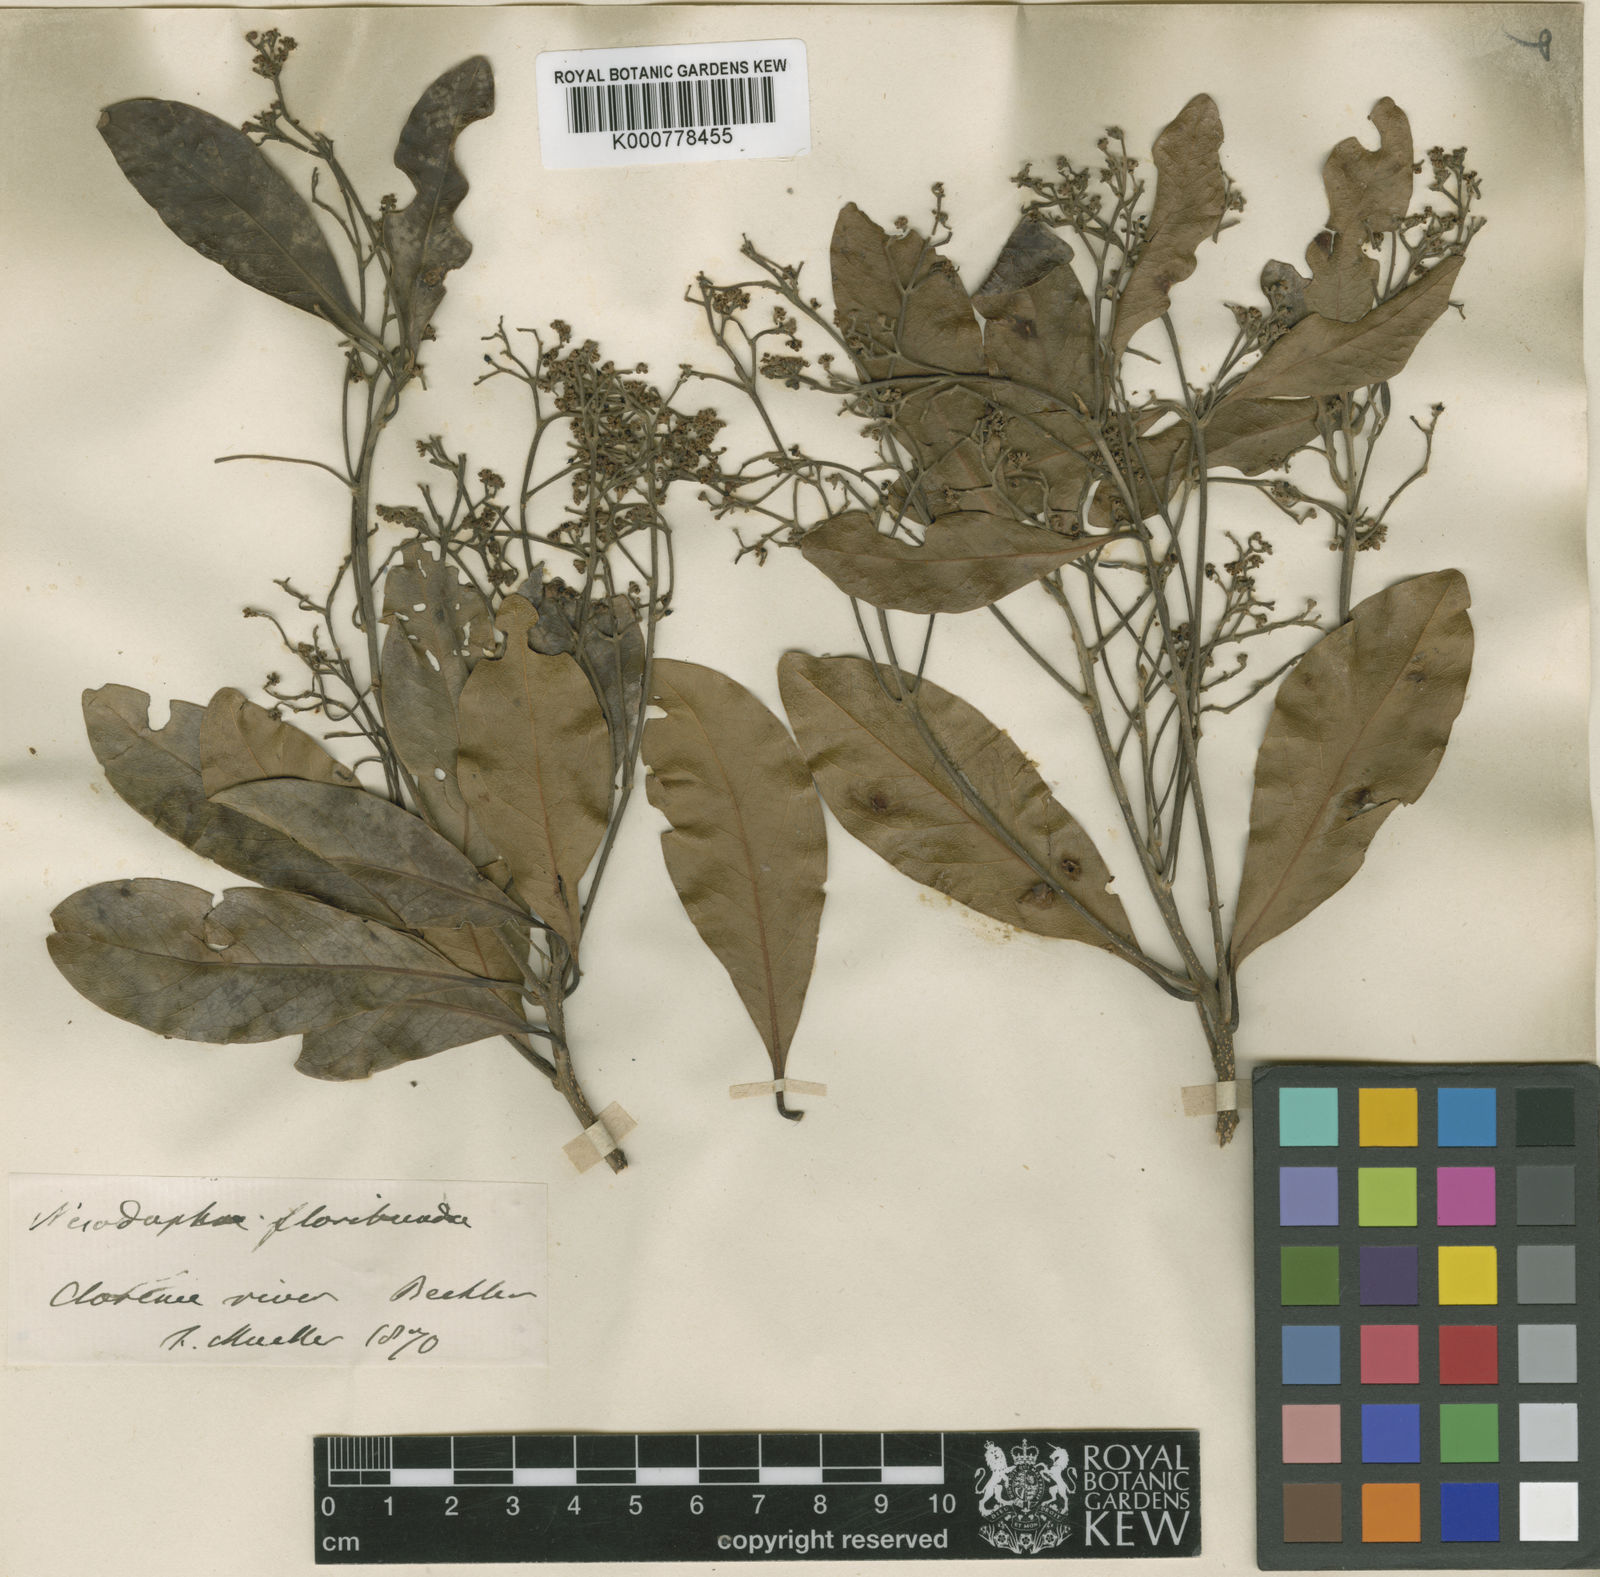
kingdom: Plantae
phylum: Tracheophyta
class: Magnoliopsida
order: Laurales
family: Lauraceae
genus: Beilschmiedia
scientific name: Beilschmiedia obtusifolia
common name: Queensland-sassafras
